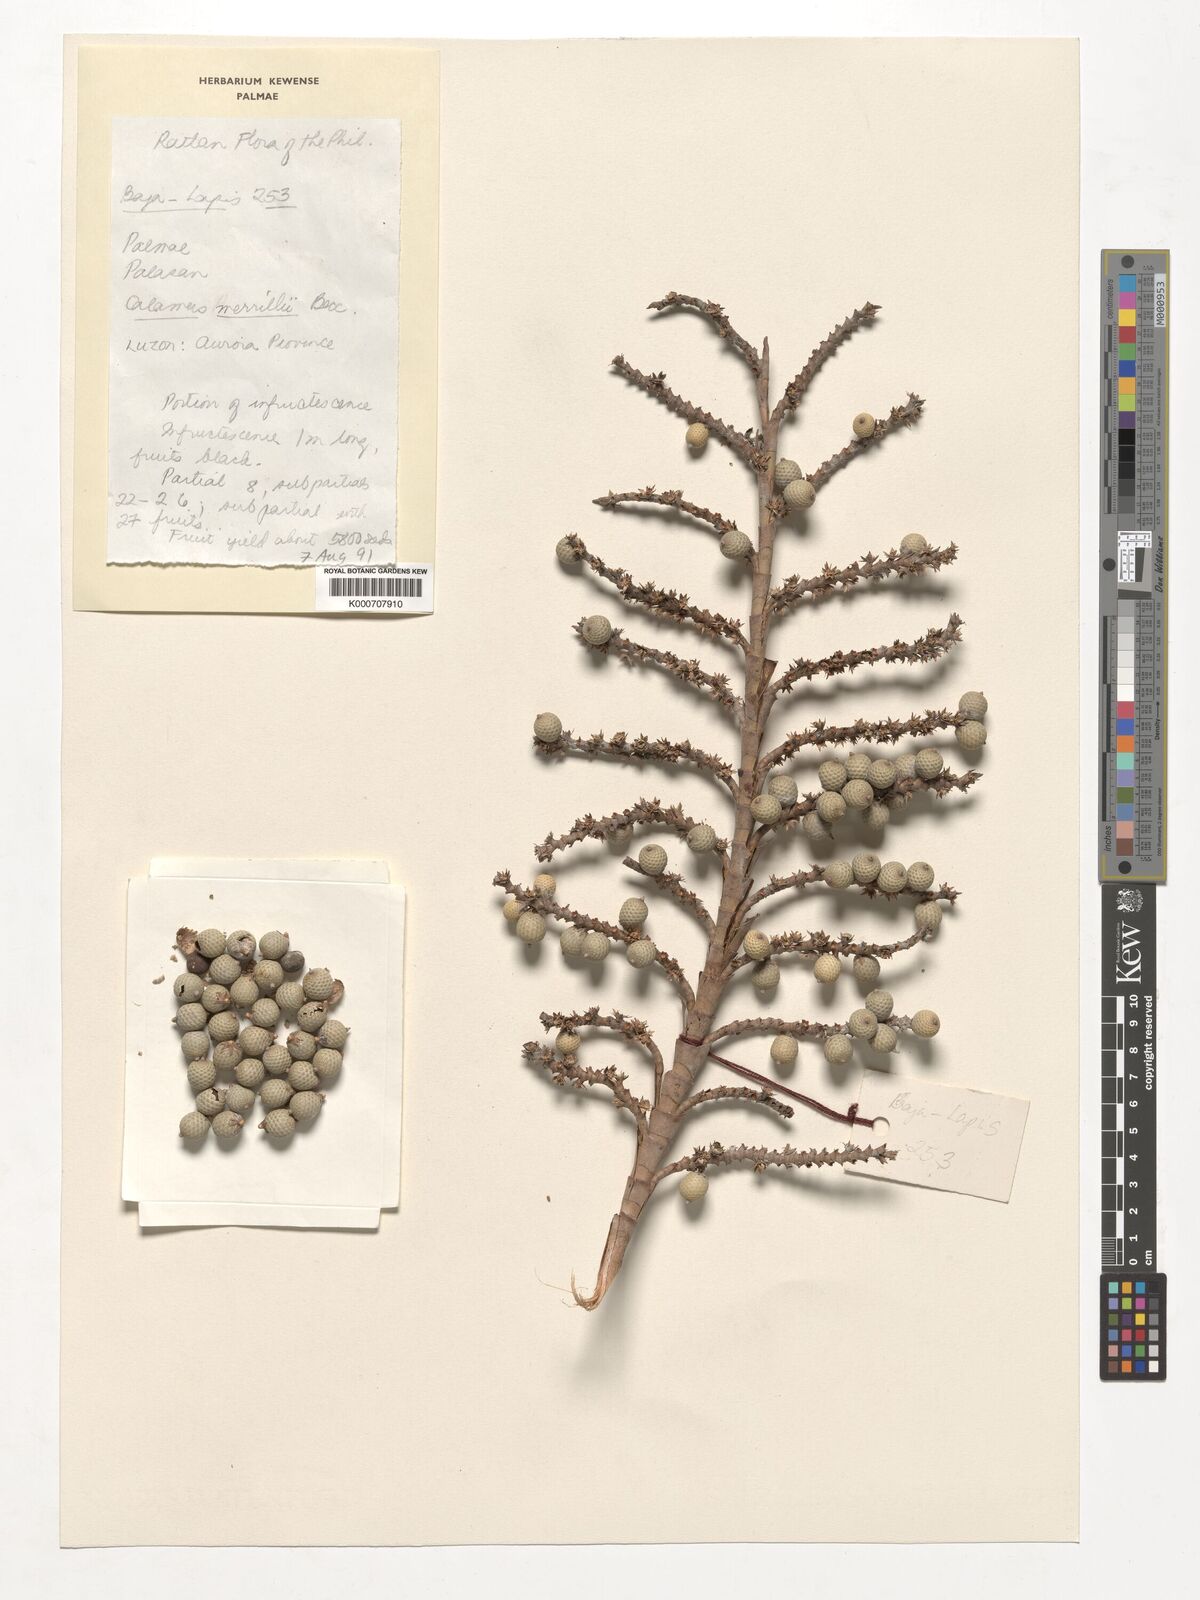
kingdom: Plantae
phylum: Tracheophyta
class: Liliopsida
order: Arecales
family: Arecaceae
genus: Calamus
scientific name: Calamus zollingeri
